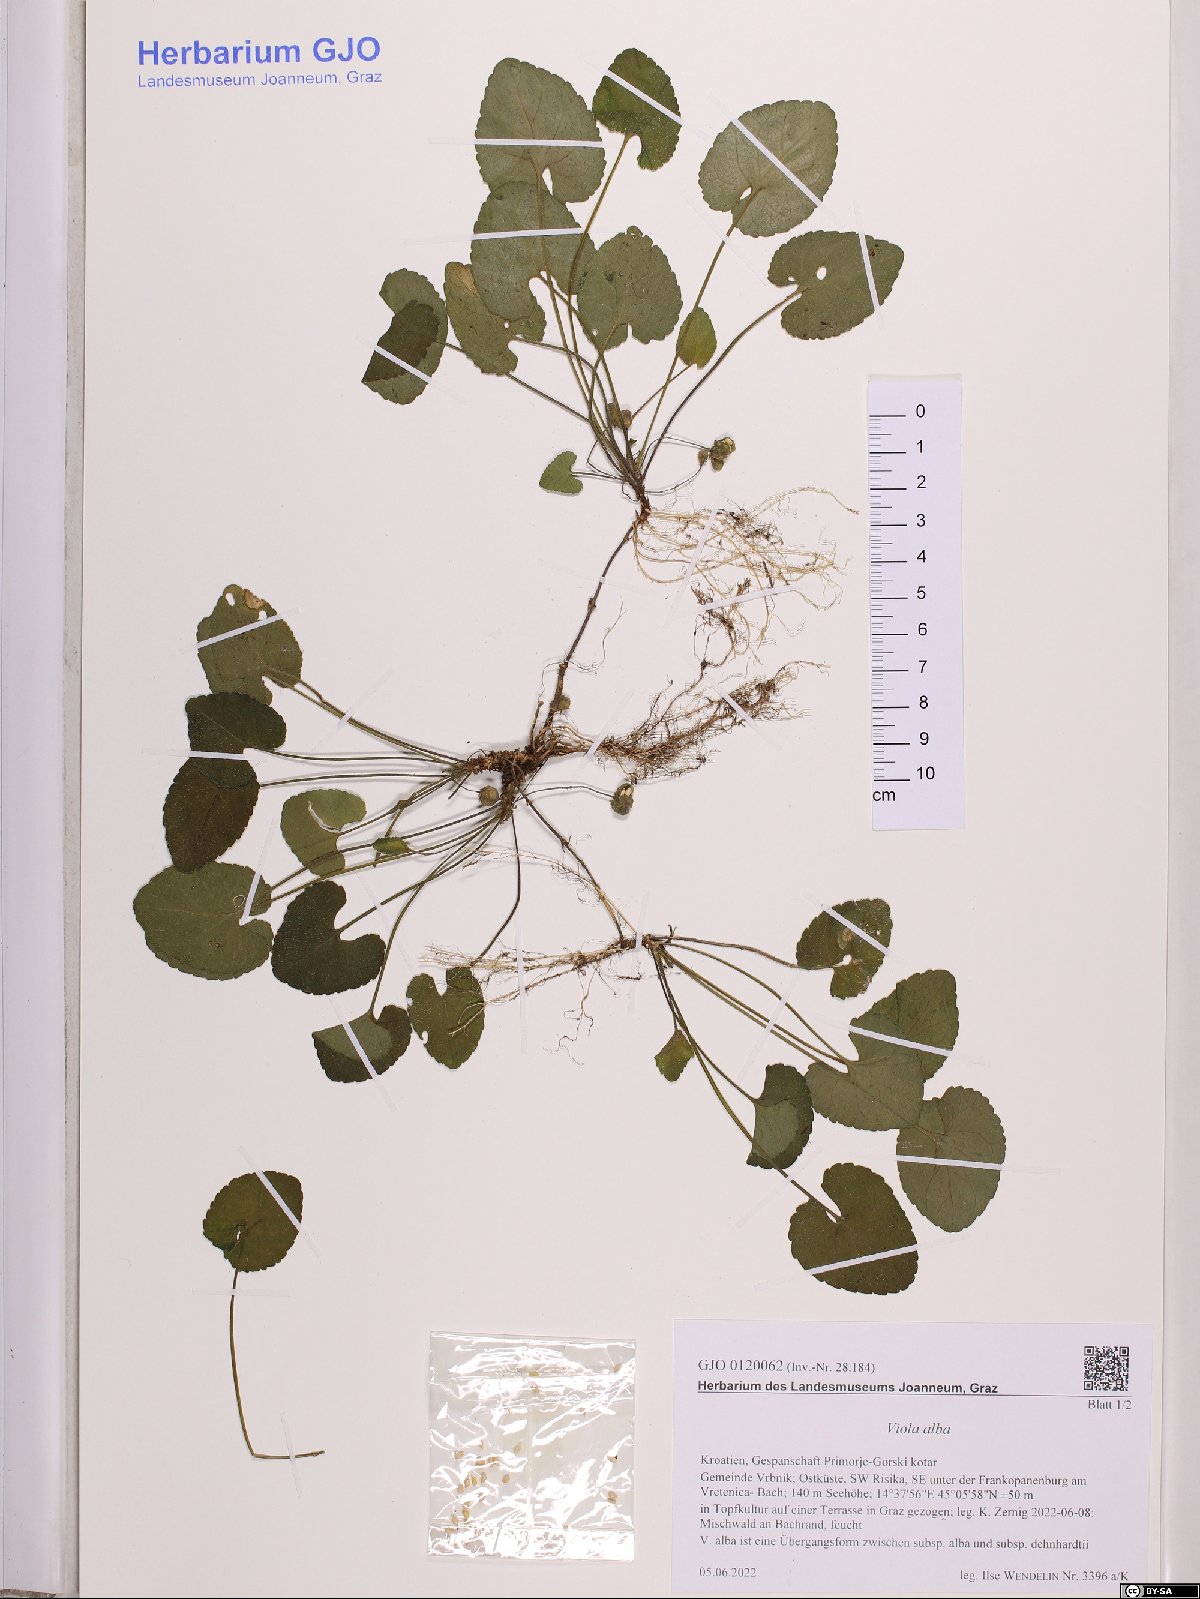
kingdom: Plantae
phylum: Tracheophyta
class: Magnoliopsida
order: Malpighiales
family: Violaceae
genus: Viola
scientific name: Viola alba
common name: White violet
